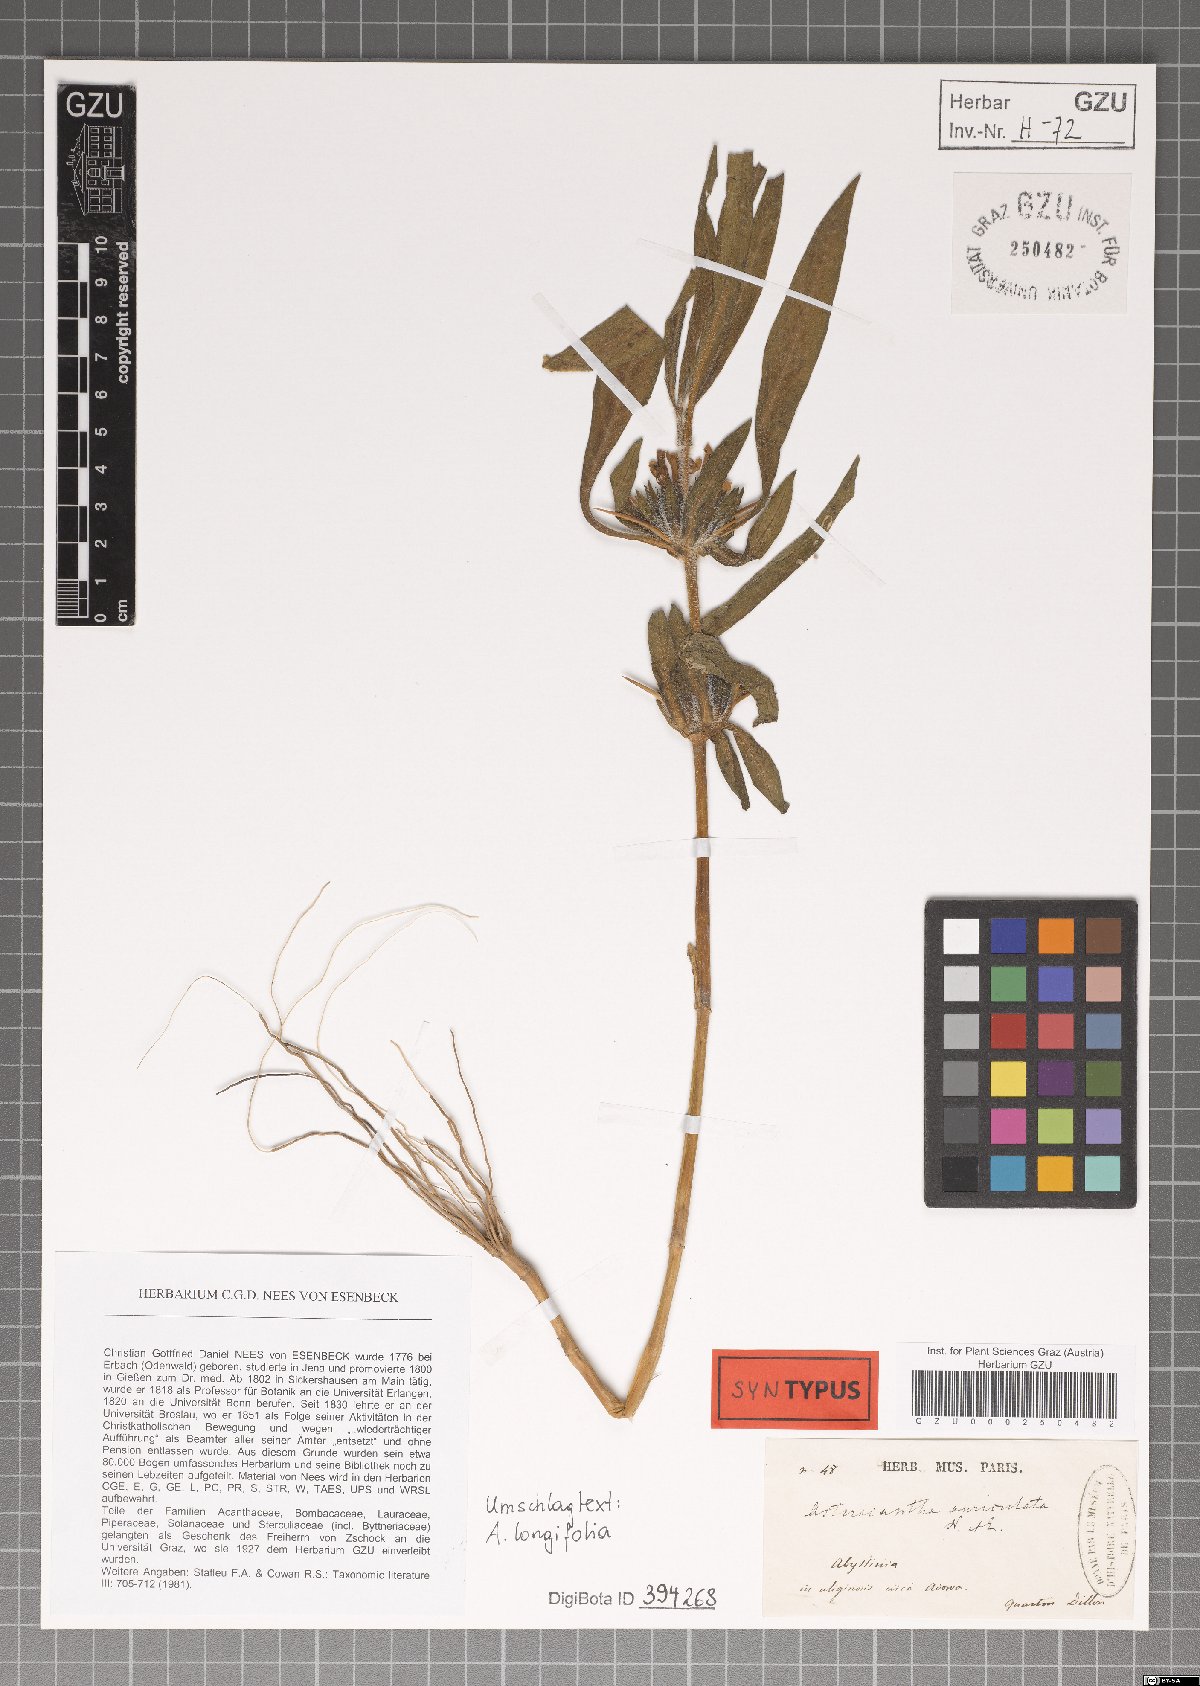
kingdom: Plantae
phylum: Tracheophyta
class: Magnoliopsida
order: Lamiales
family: Acanthaceae
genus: Hygrophila
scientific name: Hygrophila auriculata
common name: Hygrophila
